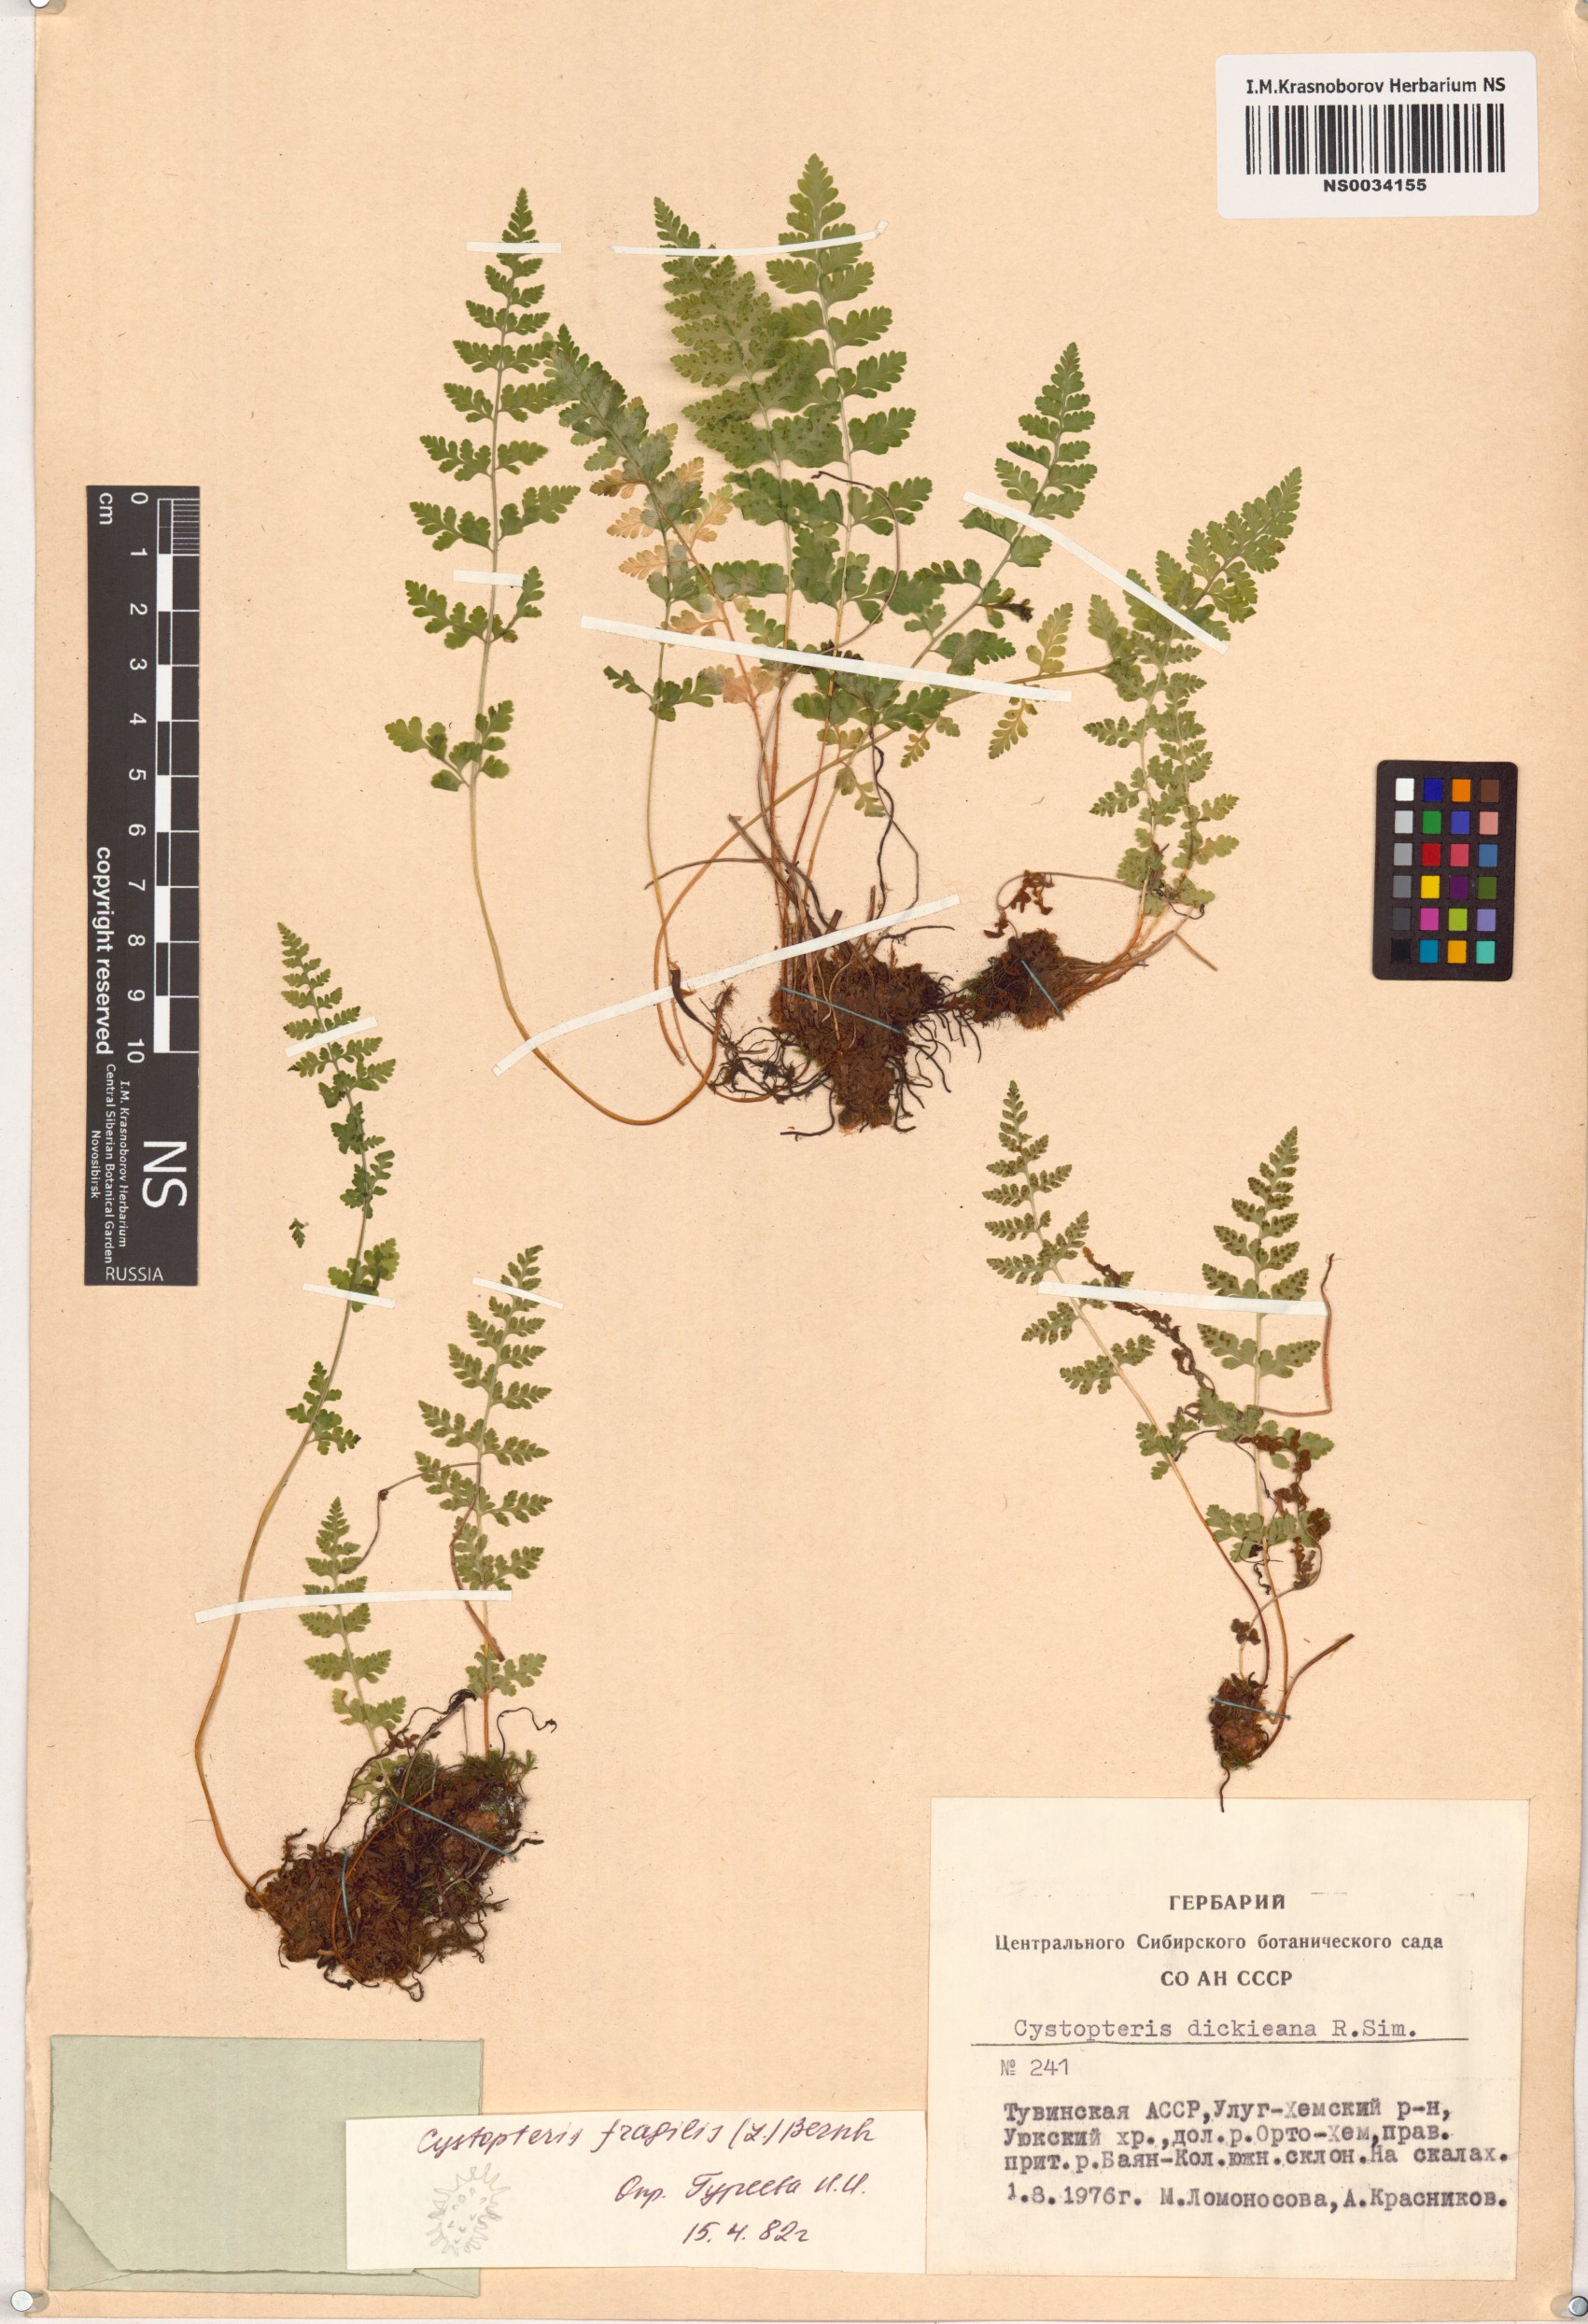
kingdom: Plantae
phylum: Tracheophyta
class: Polypodiopsida
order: Polypodiales
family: Cystopteridaceae
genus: Cystopteris
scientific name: Cystopteris fragilis
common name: Brittle bladder fern
